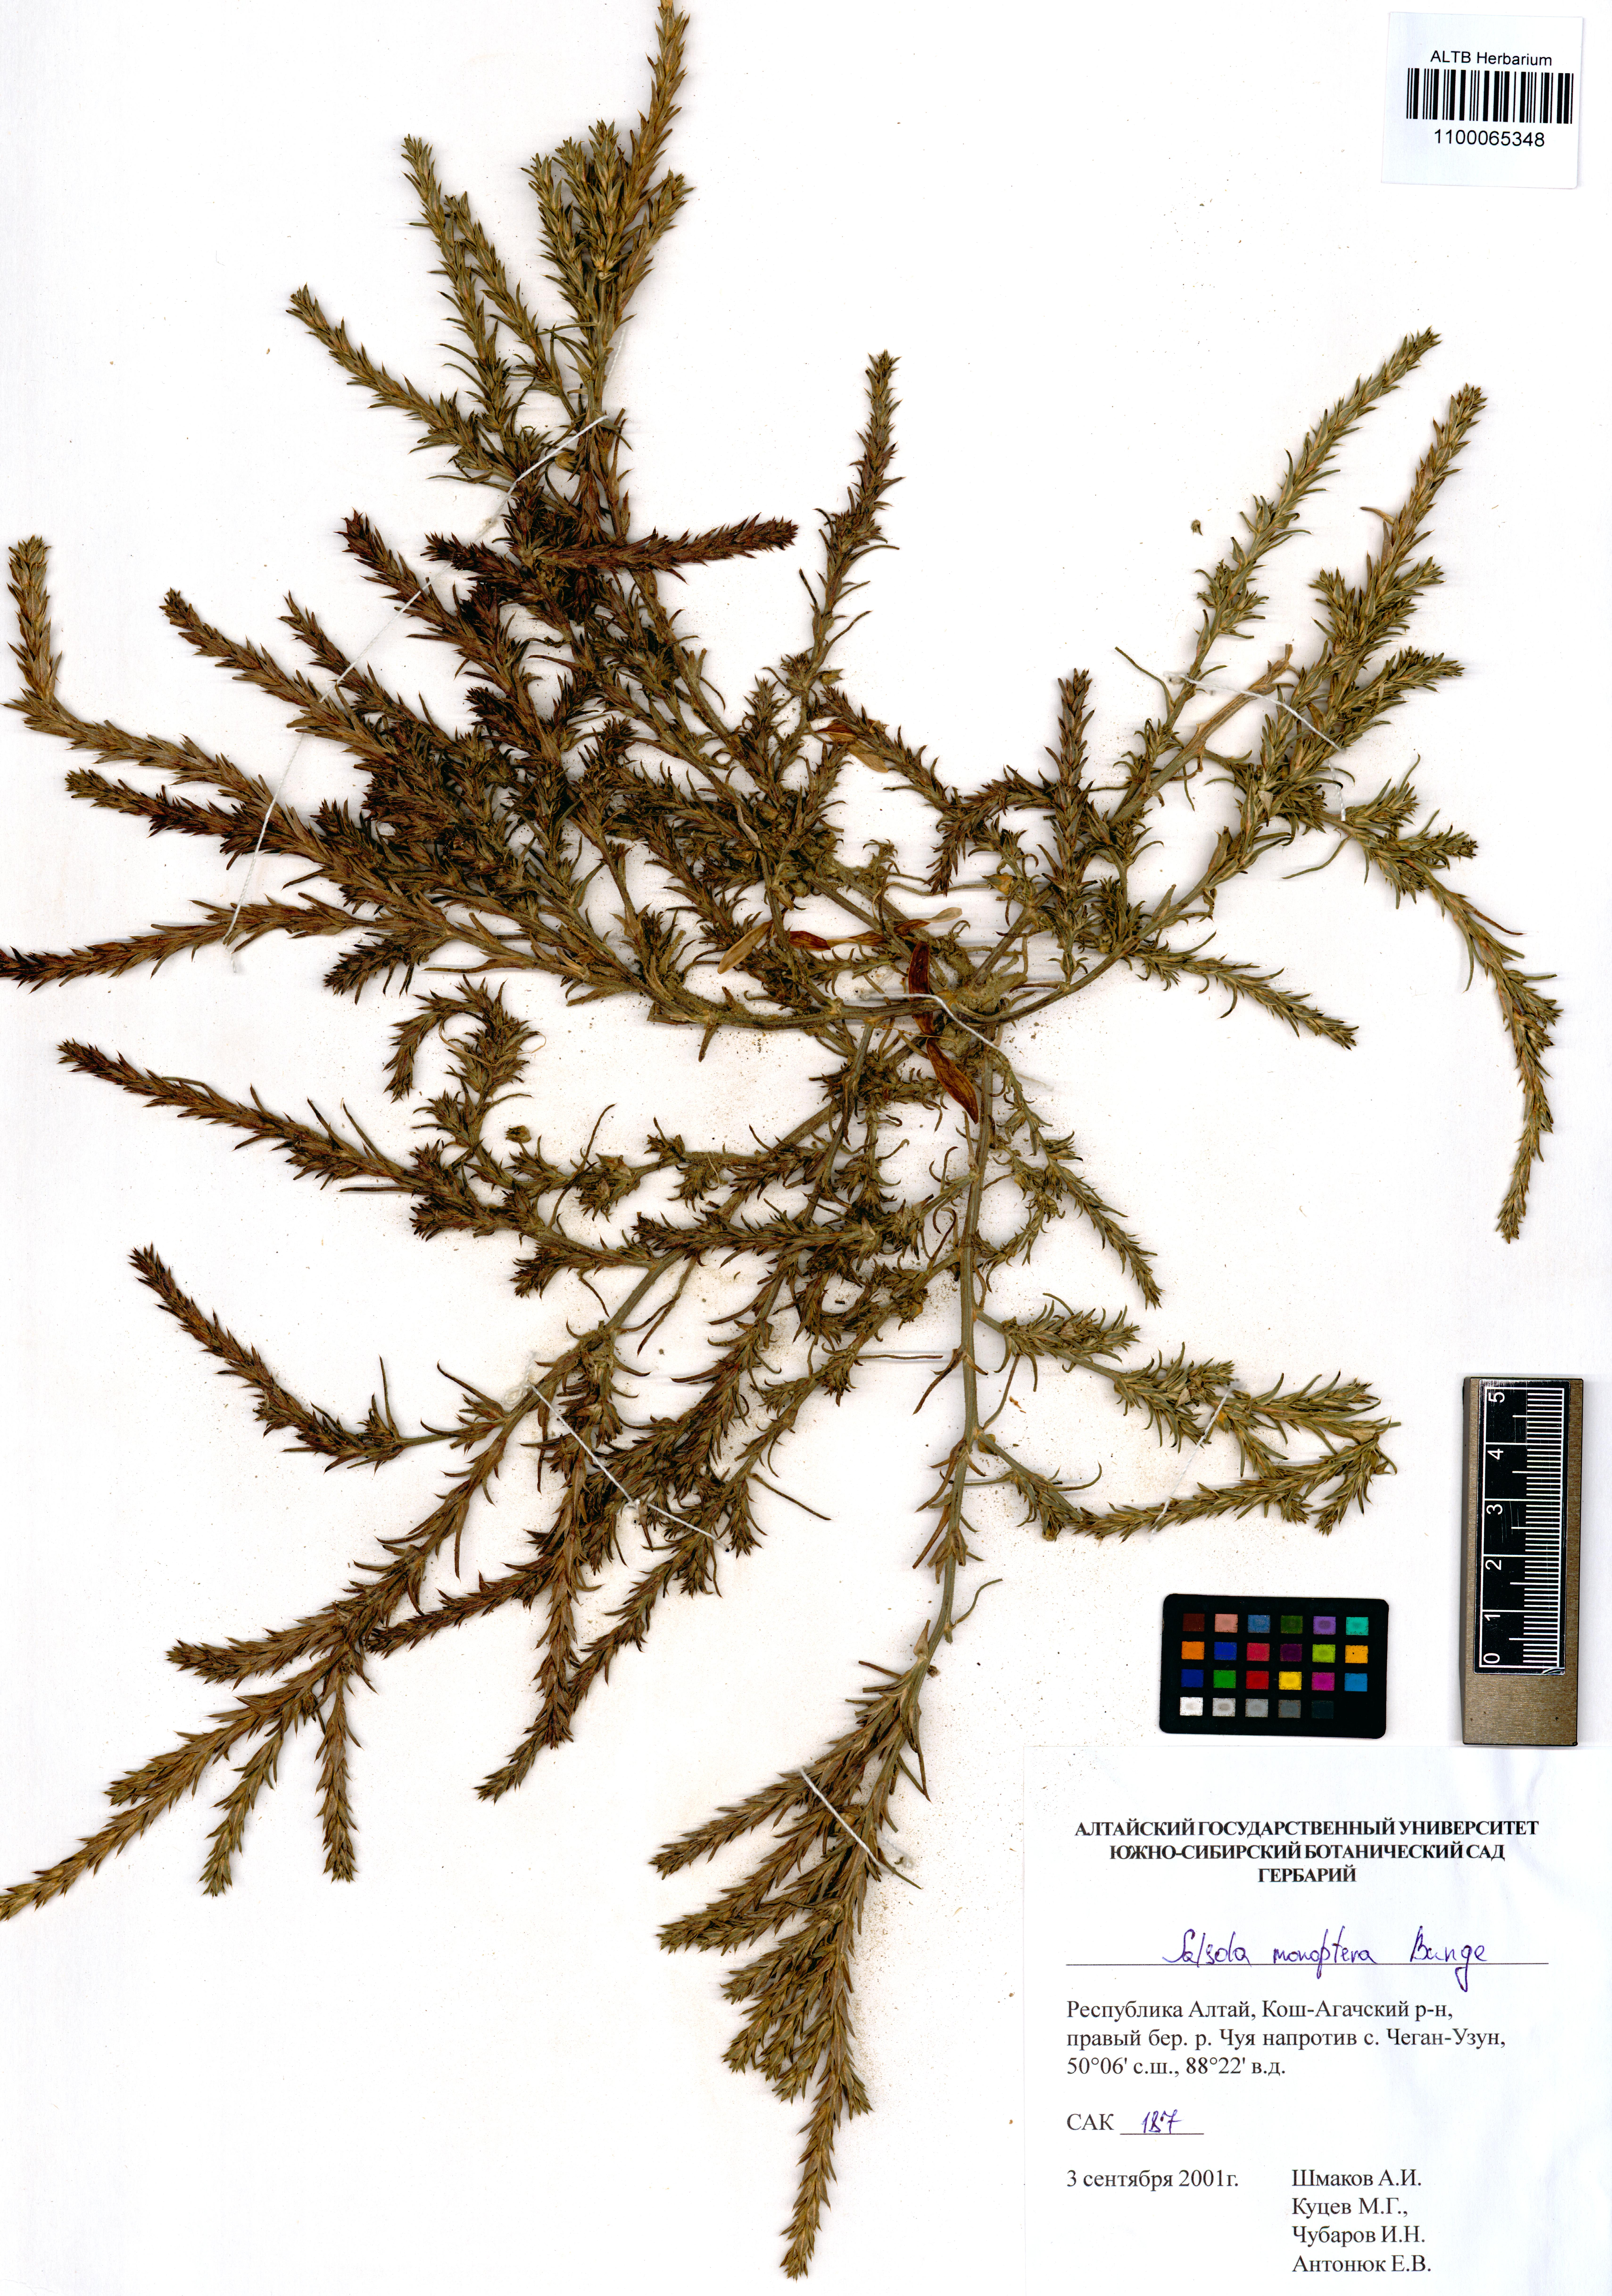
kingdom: Plantae
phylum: Tracheophyta
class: Magnoliopsida
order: Caryophyllales
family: Amaranthaceae
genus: Salsola
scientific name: Salsola monoptera
